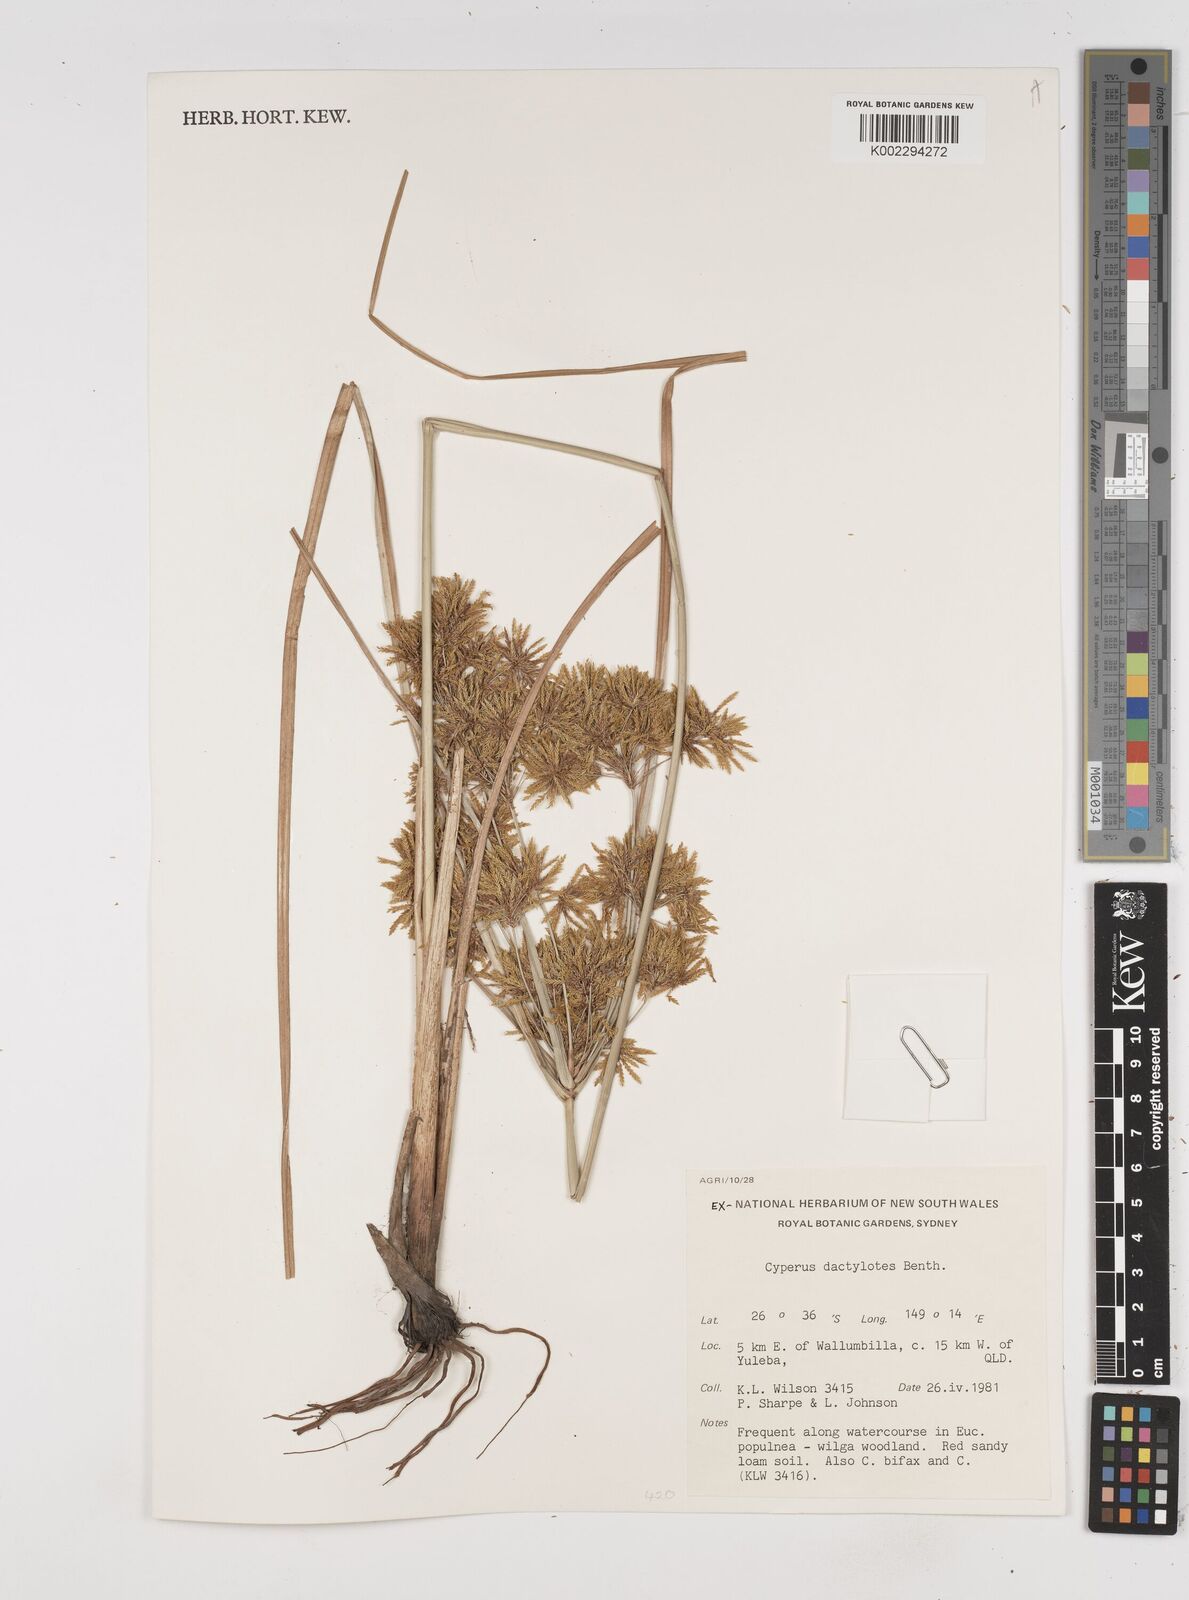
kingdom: Plantae
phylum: Tracheophyta
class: Liliopsida
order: Poales
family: Cyperaceae
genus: Cyperus
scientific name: Cyperus dactylotes
